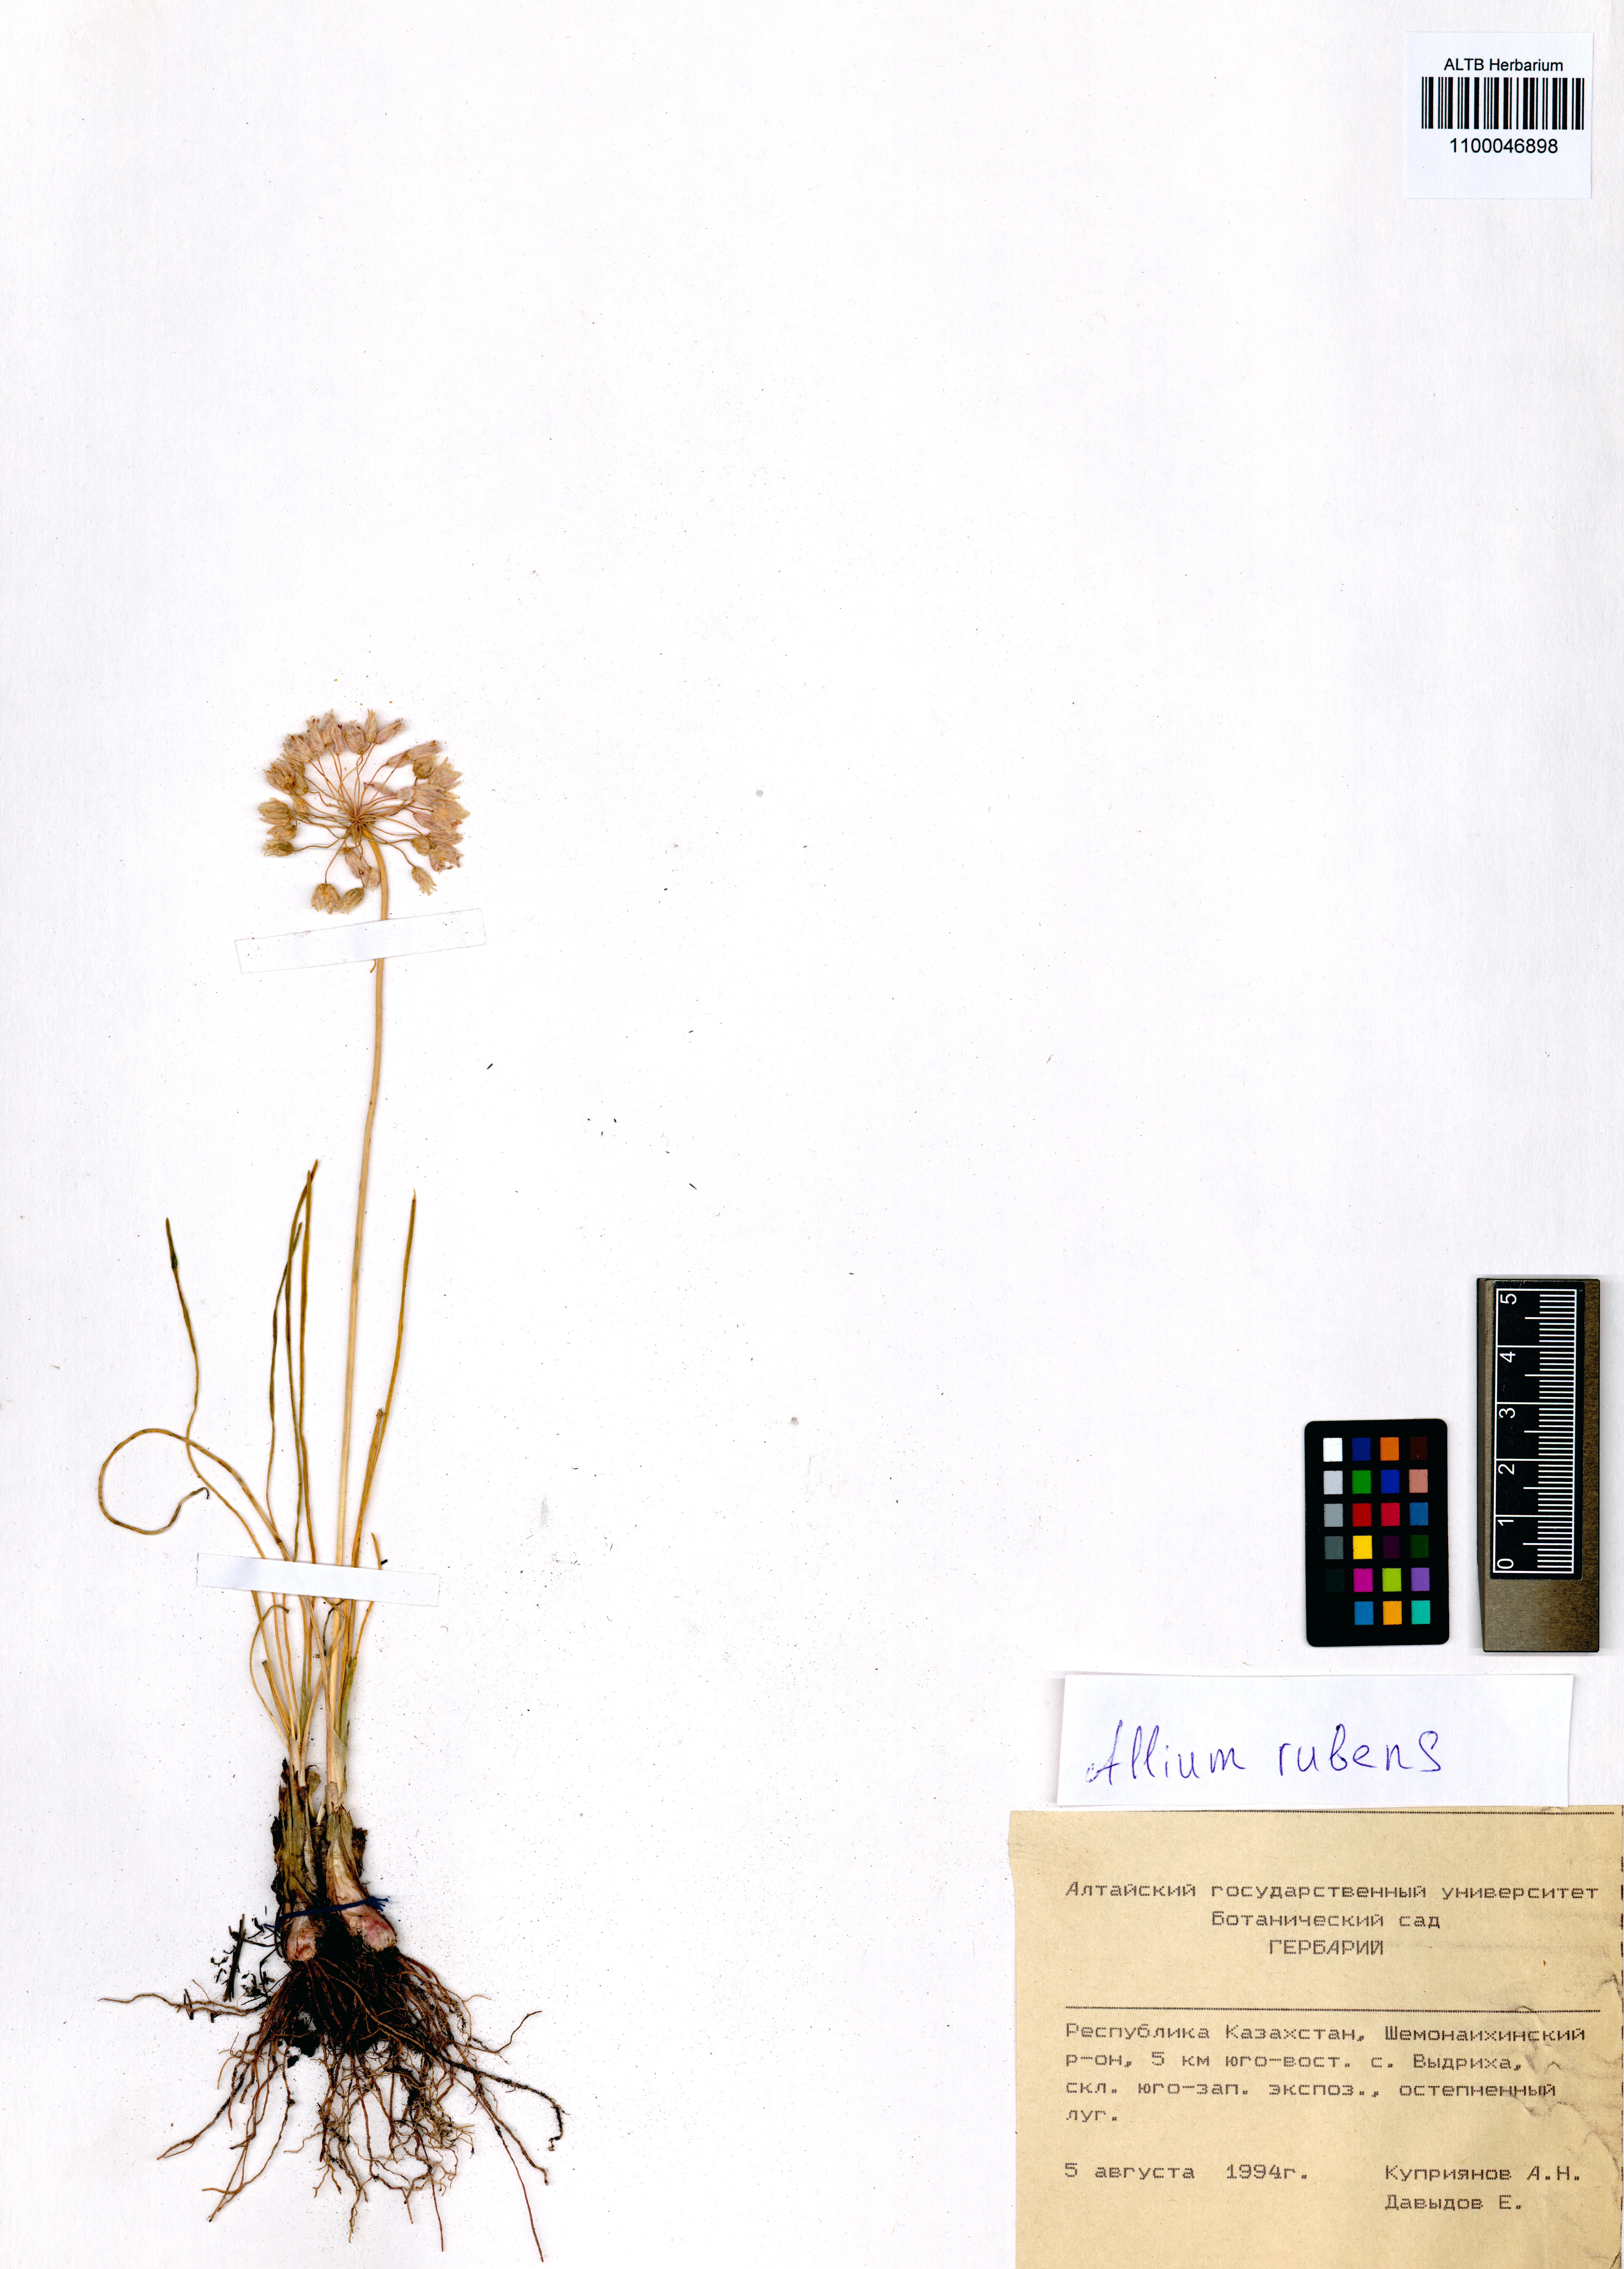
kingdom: Plantae
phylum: Tracheophyta
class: Liliopsida
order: Asparagales
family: Amaryllidaceae
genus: Allium
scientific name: Allium rubens
